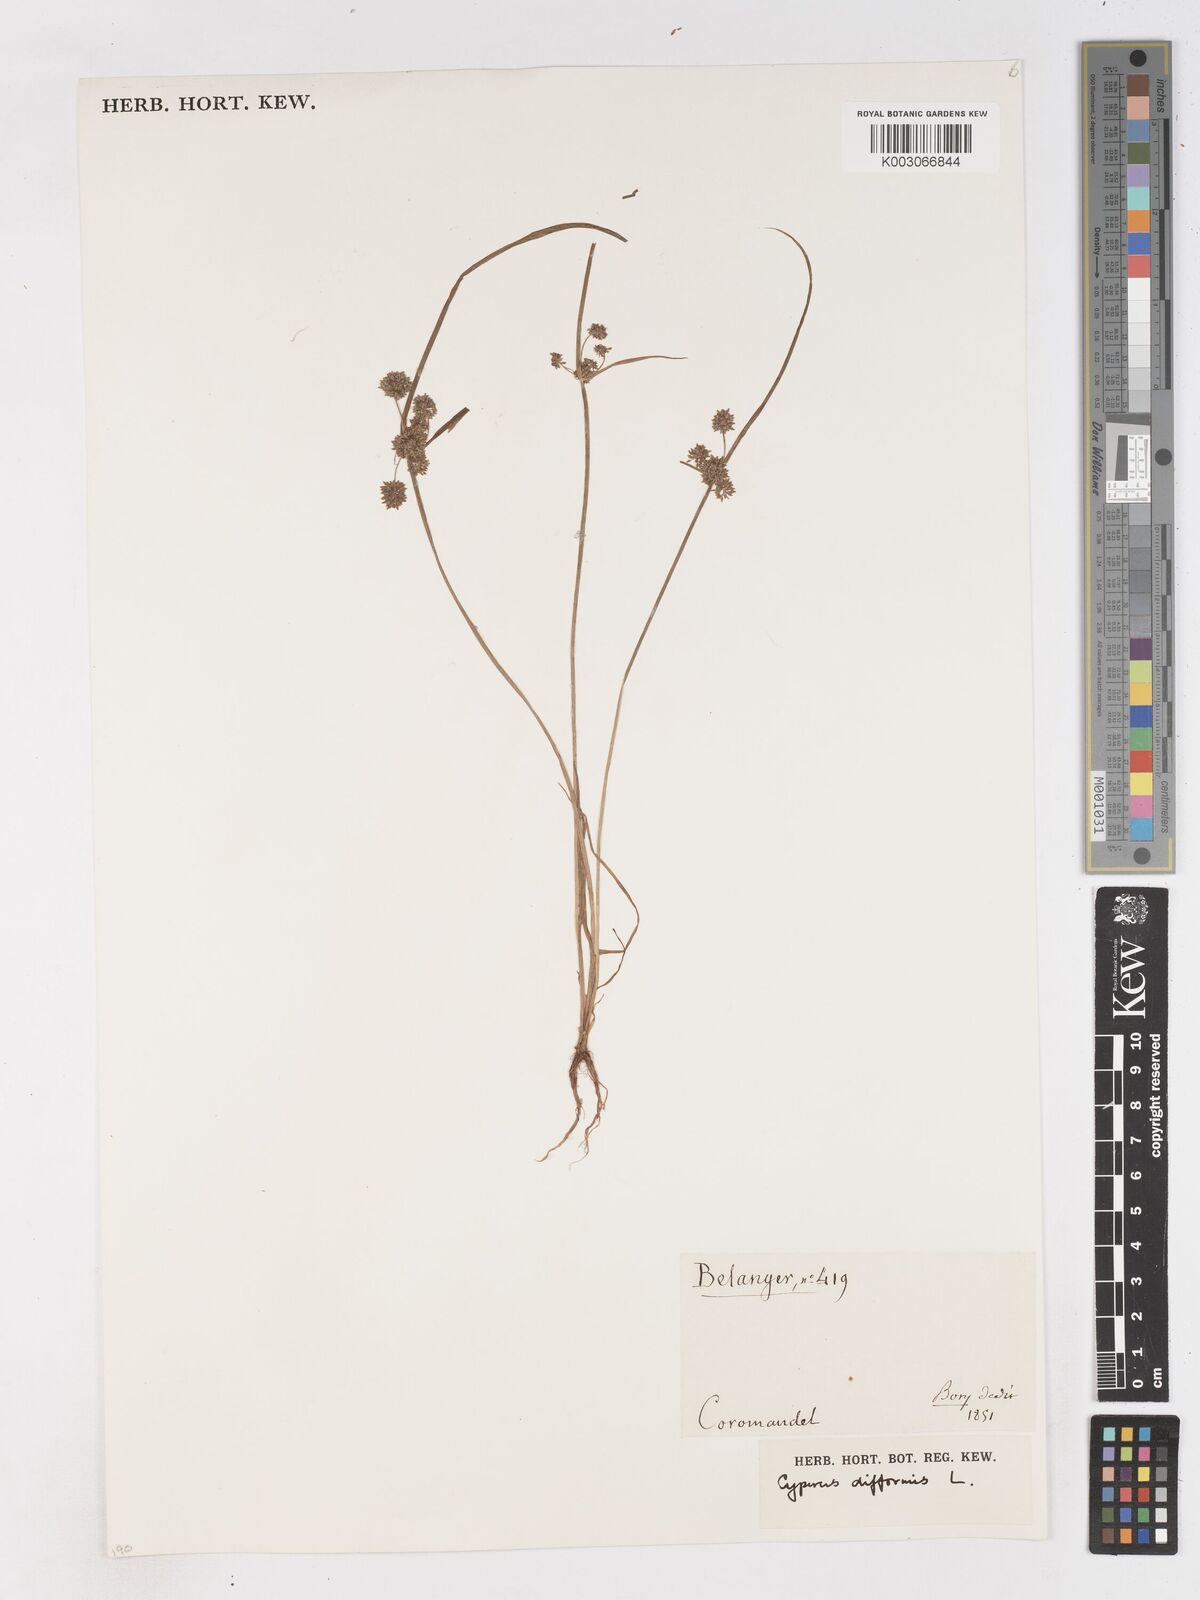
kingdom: Plantae
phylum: Tracheophyta
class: Liliopsida
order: Poales
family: Cyperaceae
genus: Cyperus
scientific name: Cyperus difformis
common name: Variable flatsedge
